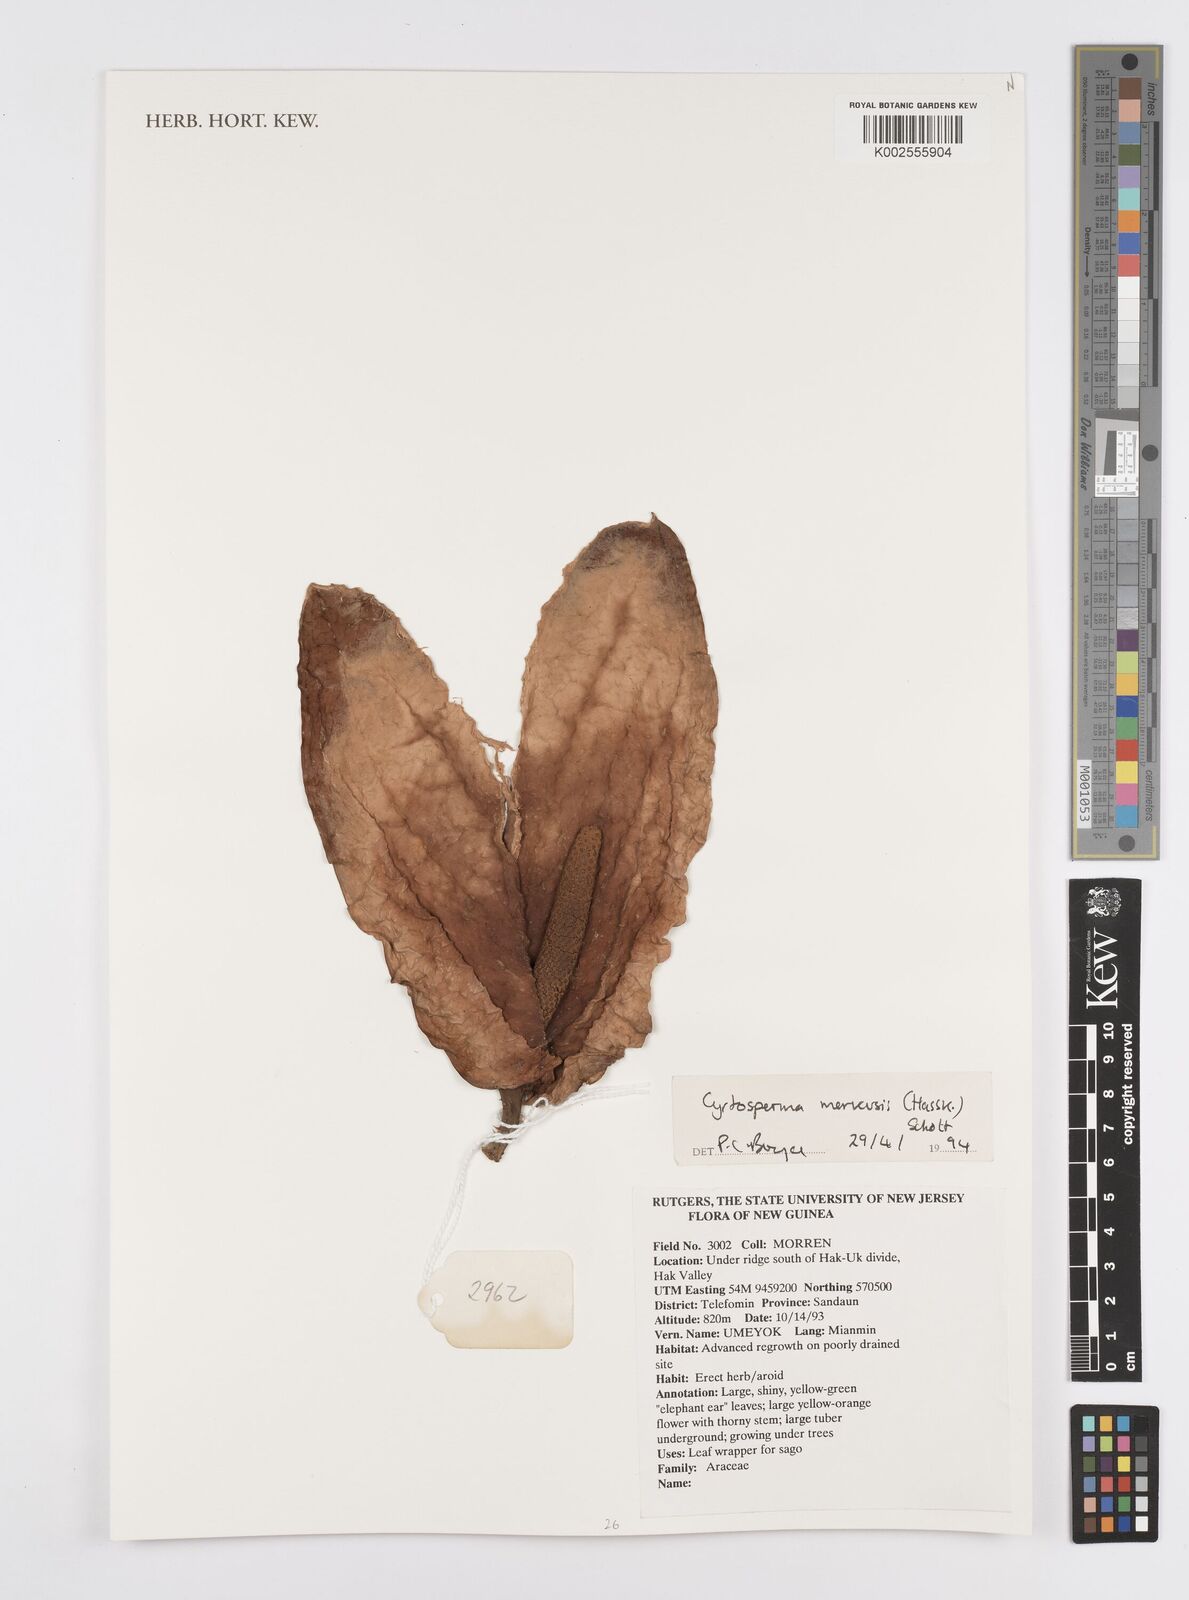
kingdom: Plantae
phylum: Tracheophyta
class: Liliopsida
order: Alismatales
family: Araceae
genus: Cyrtosperma
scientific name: Cyrtosperma merkusii
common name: Giant swamp-taro
